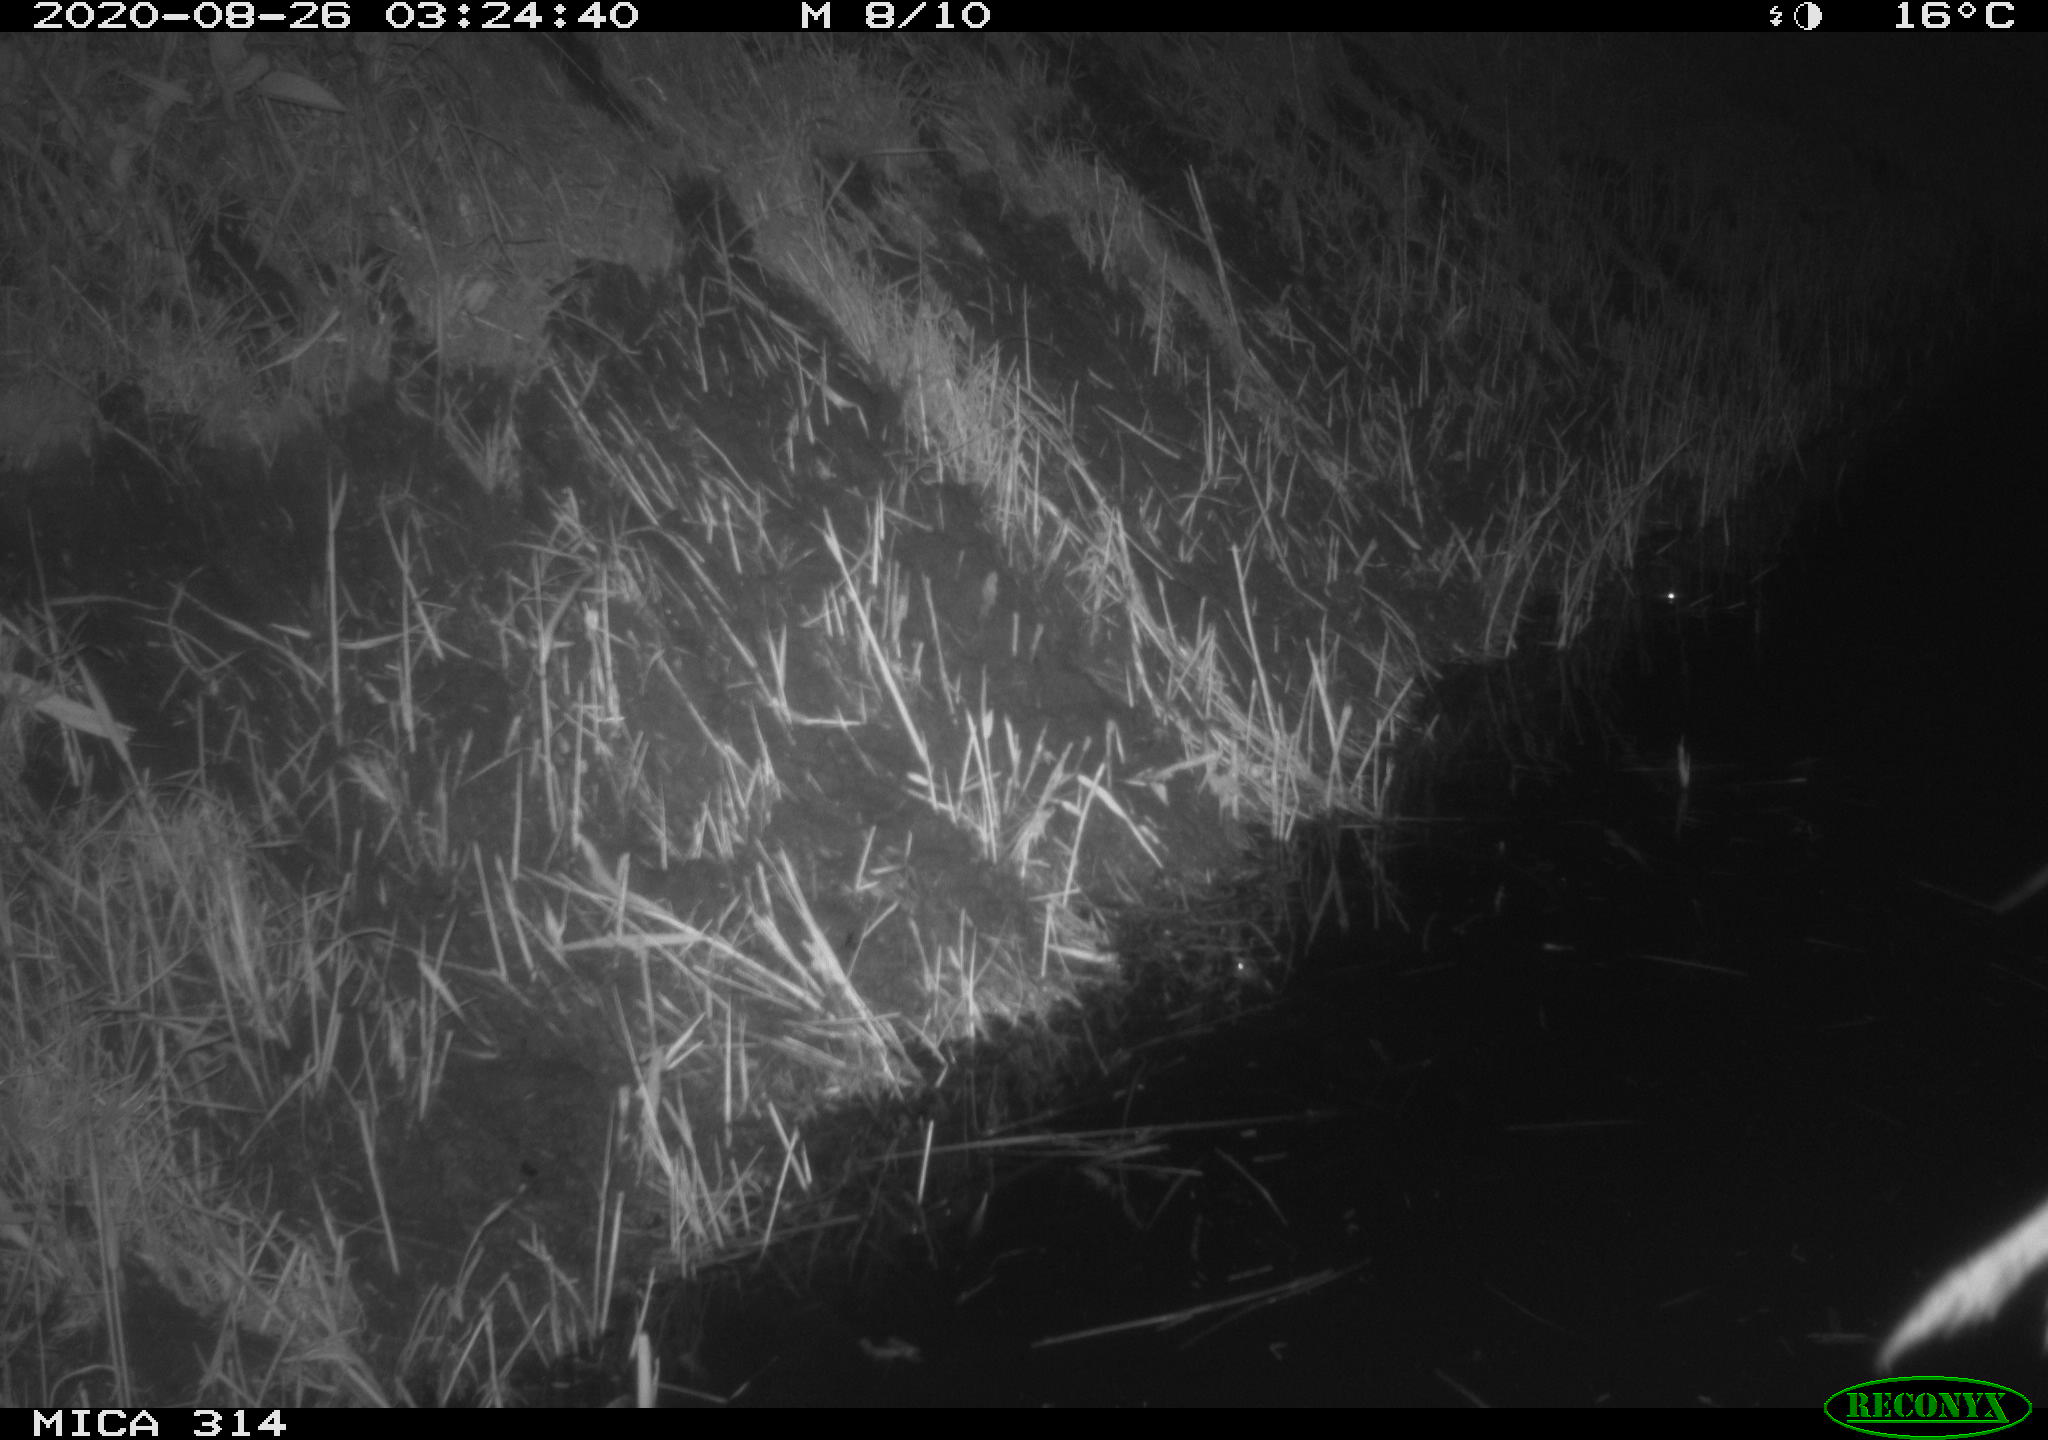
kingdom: Animalia
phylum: Chordata
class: Mammalia
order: Rodentia
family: Muridae
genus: Rattus
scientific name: Rattus norvegicus
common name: Brown rat
